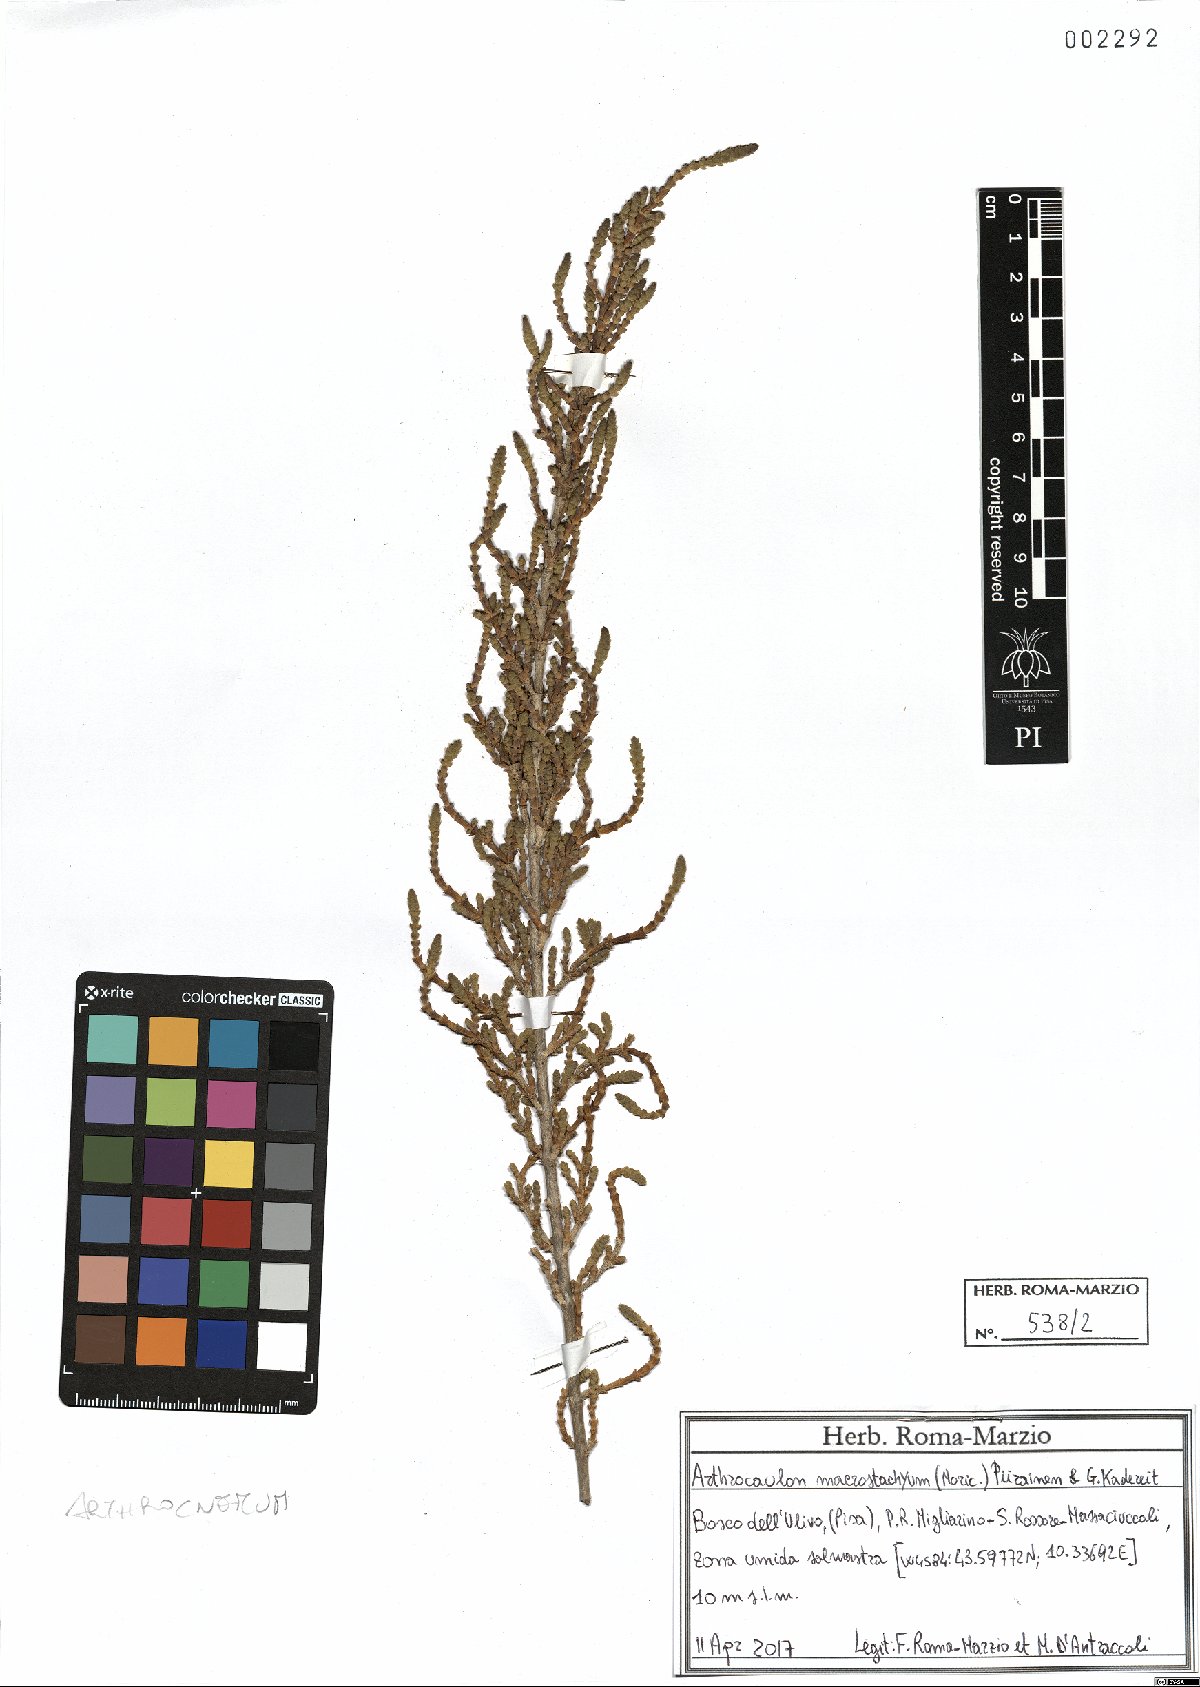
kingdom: Plantae
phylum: Tracheophyta
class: Magnoliopsida
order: Caryophyllales
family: Amaranthaceae
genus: Arthrocaulon
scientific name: Arthrocaulon macrostachyum
